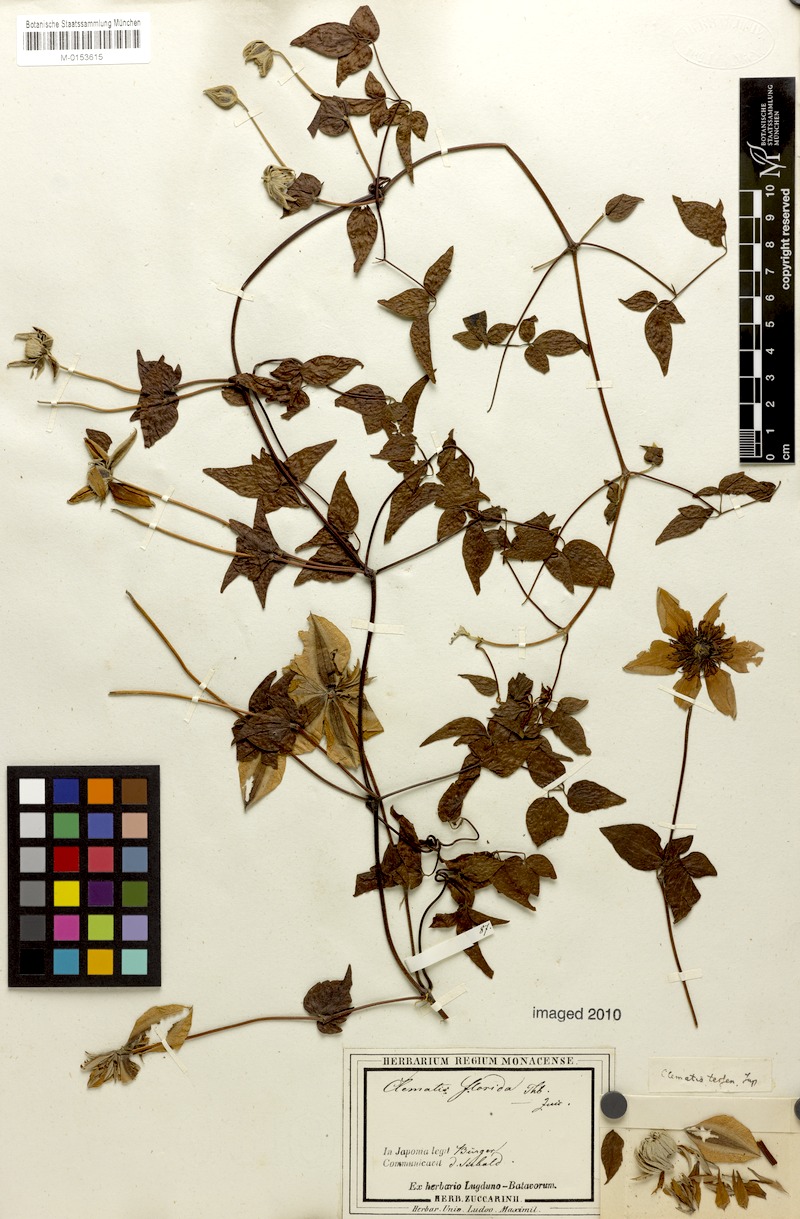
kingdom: Plantae
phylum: Tracheophyta
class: Magnoliopsida
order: Ranunculales
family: Ranunculaceae
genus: Clematis
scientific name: Clematis florida
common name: Asian virginsbower
